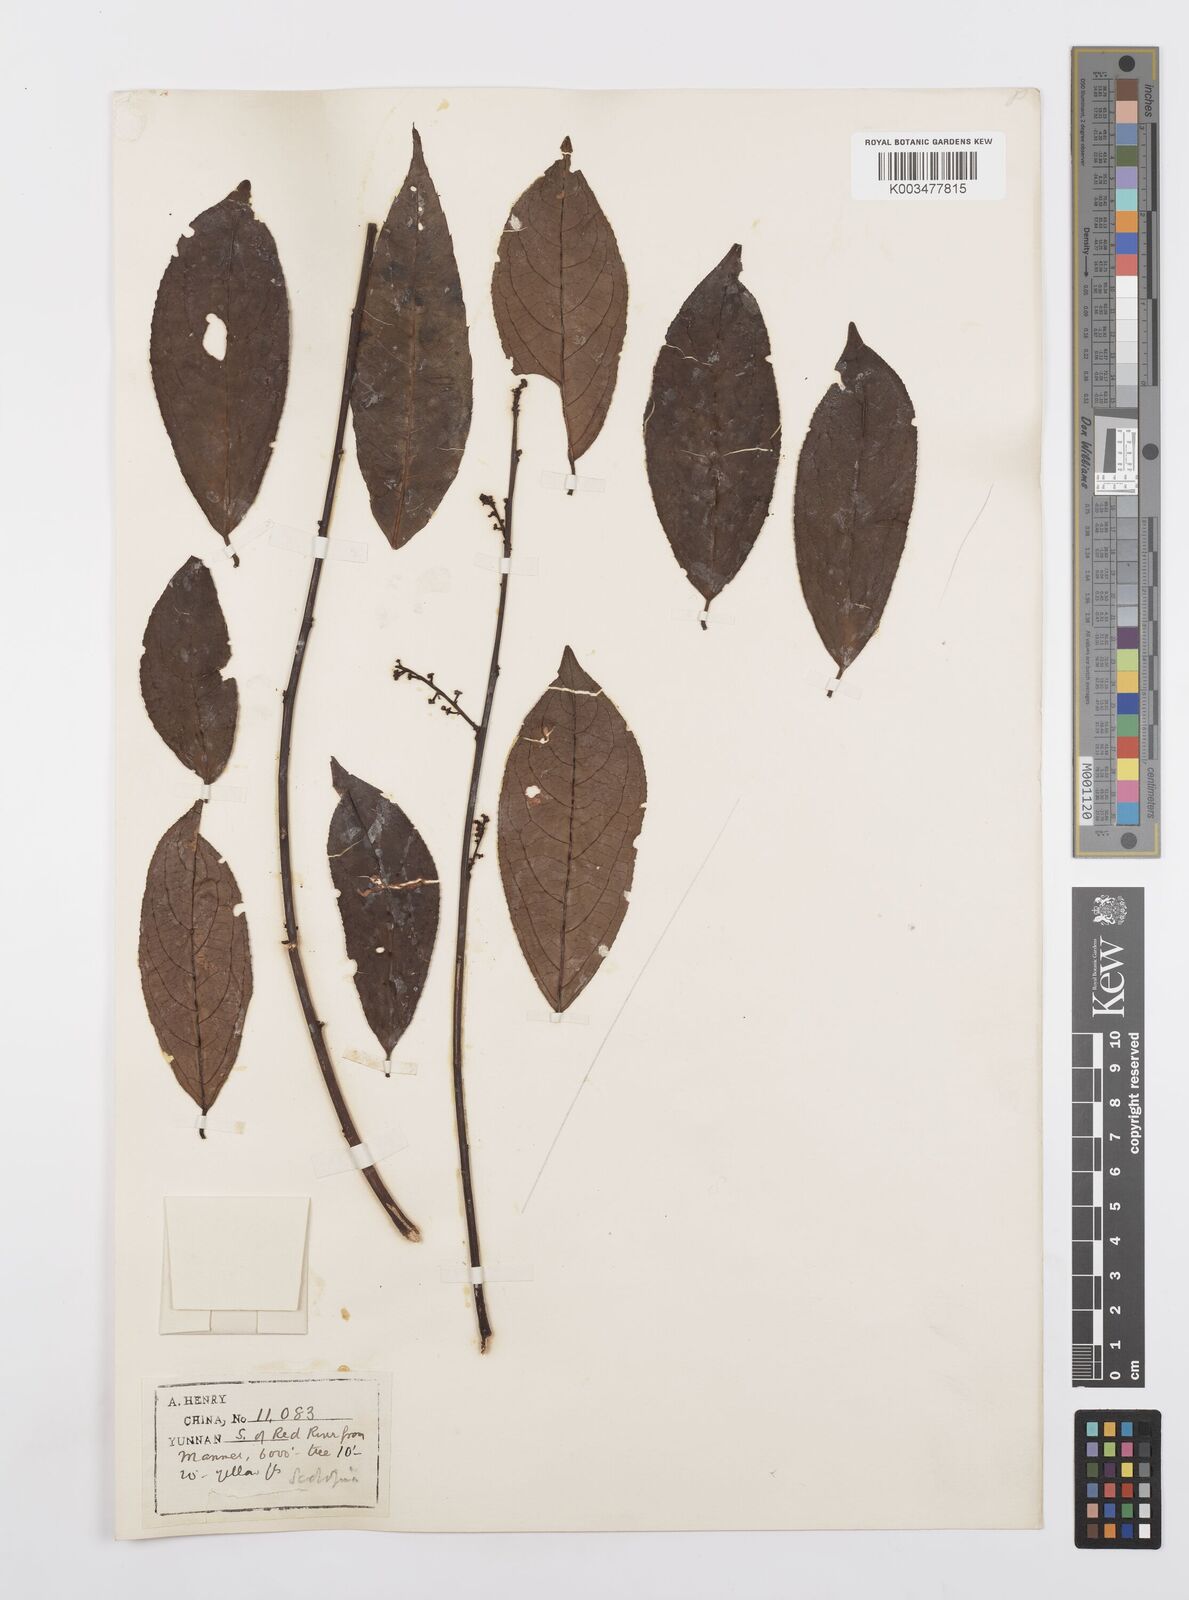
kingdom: Plantae
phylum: Tracheophyta
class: Magnoliopsida
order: Malpighiales
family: Salicaceae
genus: Scolopia
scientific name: Scolopia
